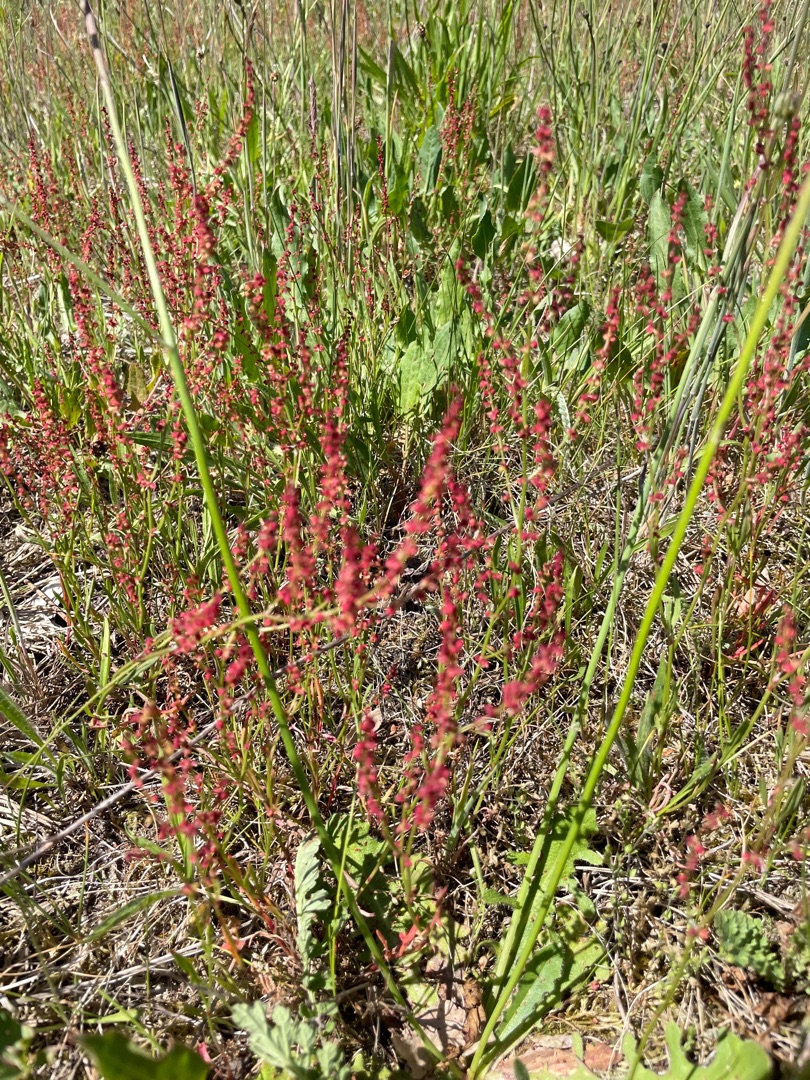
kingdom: Plantae
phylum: Tracheophyta
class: Magnoliopsida
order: Caryophyllales
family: Polygonaceae
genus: Rumex
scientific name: Rumex acetosella
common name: Rødknæ
